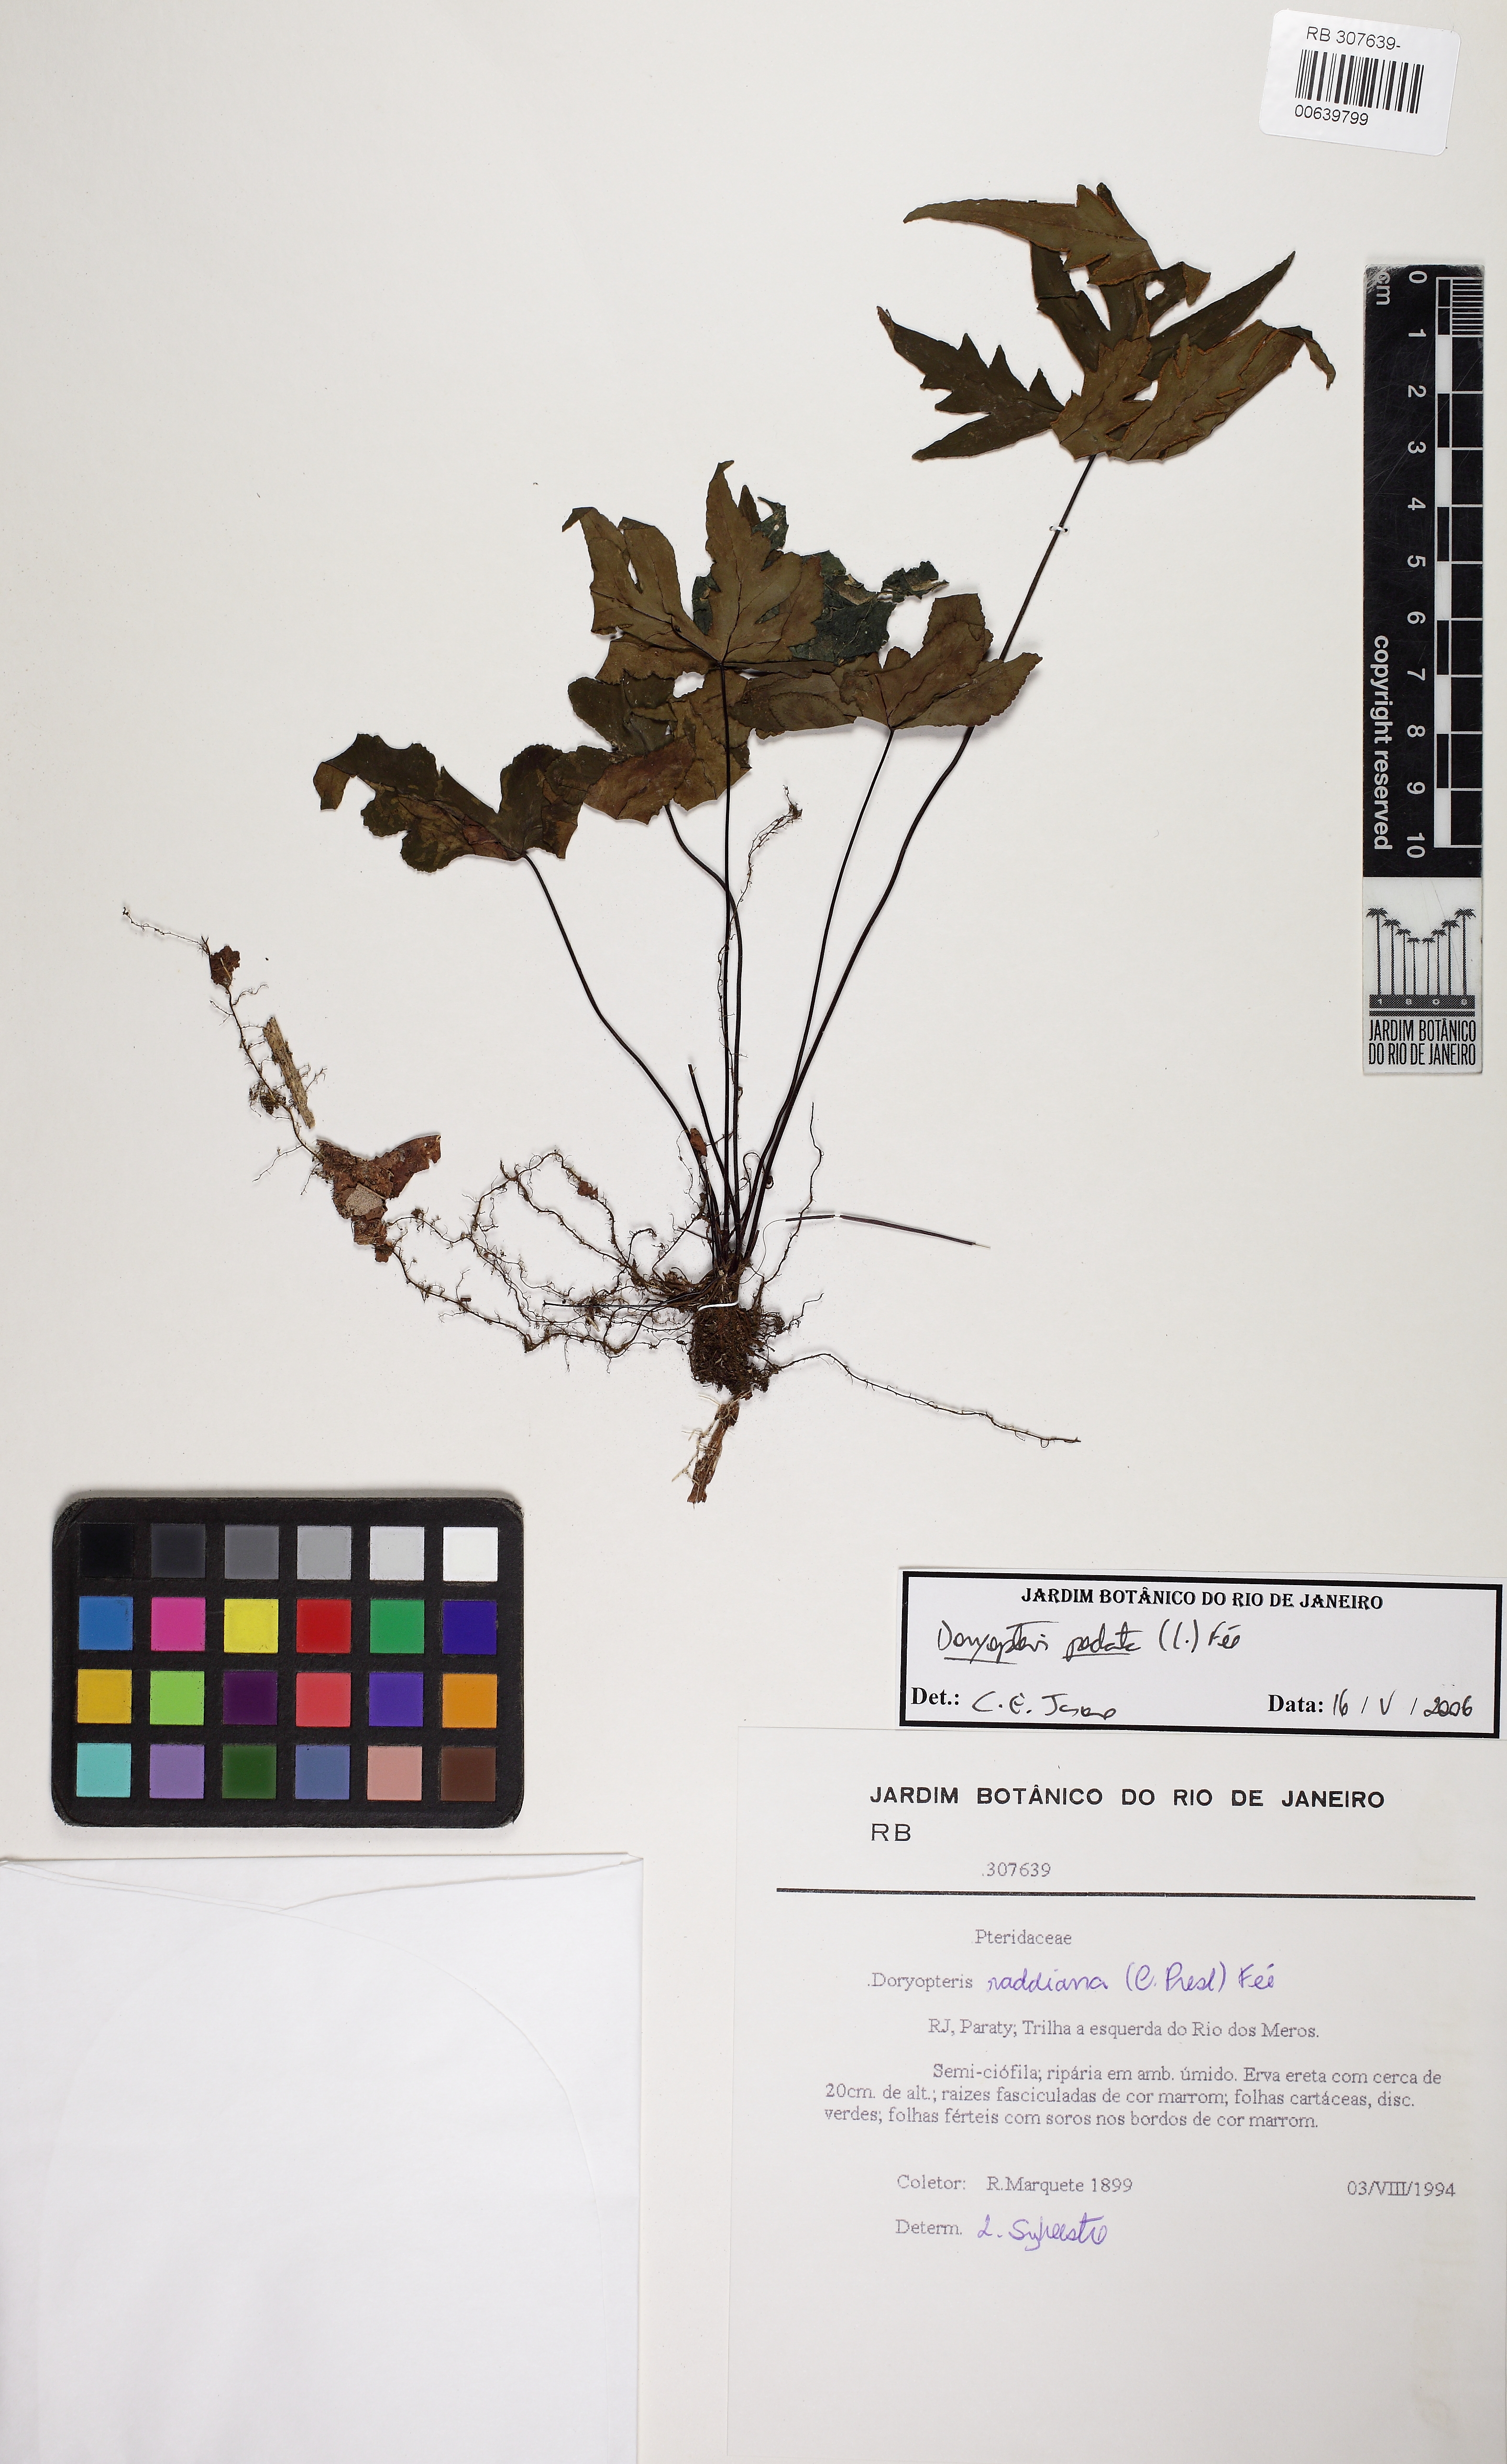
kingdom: Plantae
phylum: Tracheophyta
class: Polypodiopsida
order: Polypodiales
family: Pteridaceae
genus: Doryopteris
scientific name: Doryopteris pentagona
